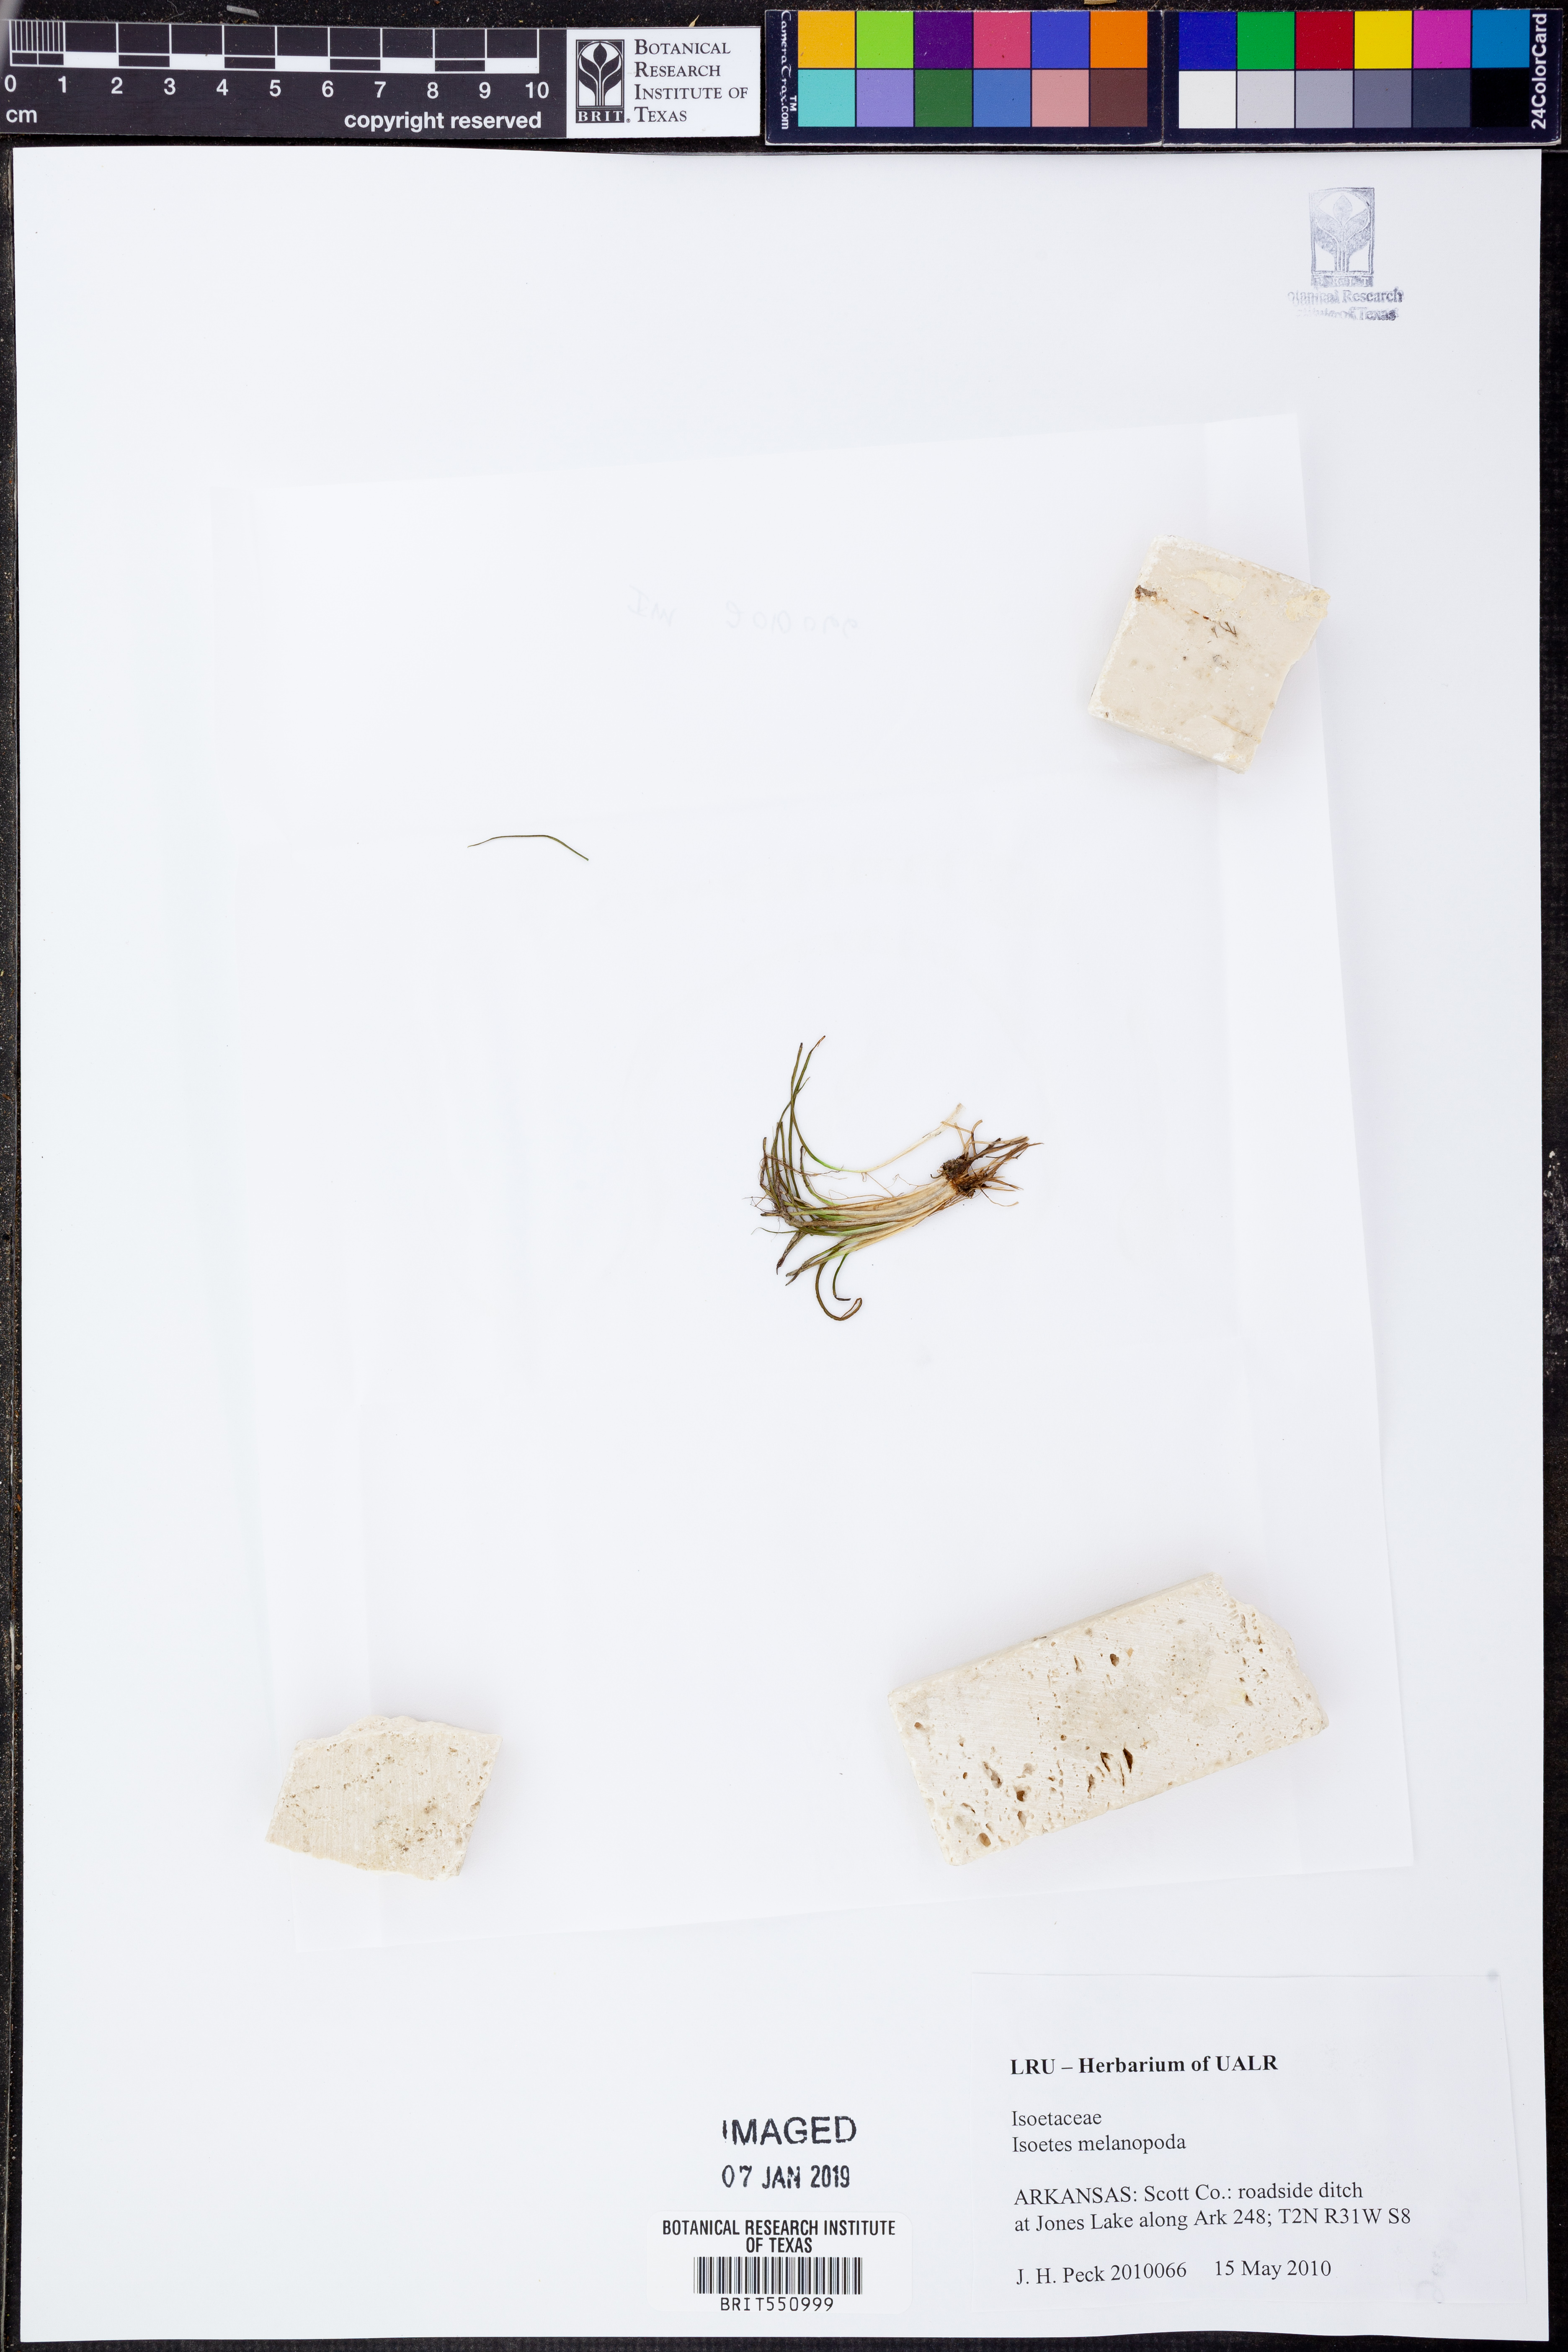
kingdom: Plantae
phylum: Tracheophyta
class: Lycopodiopsida
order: Isoetales
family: Isoetaceae
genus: Isoetes
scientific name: Isoetes melanopoda
